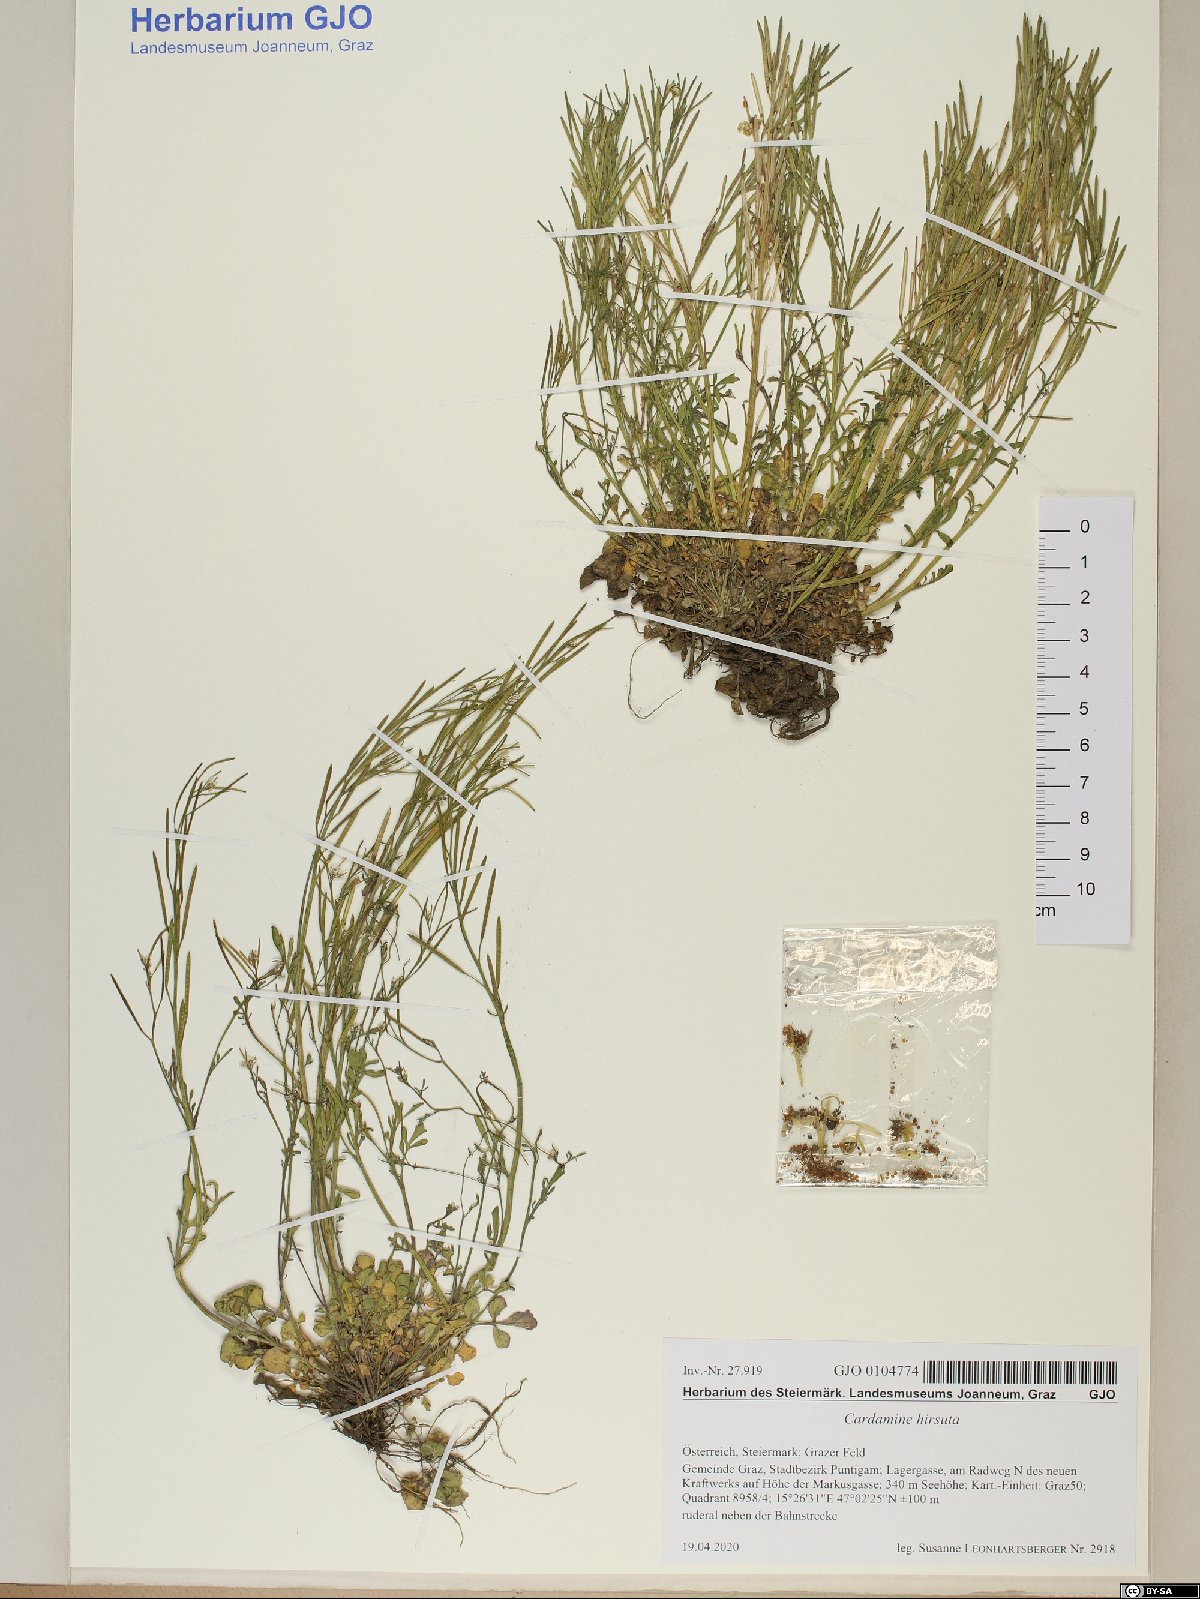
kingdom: Plantae
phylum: Tracheophyta
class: Magnoliopsida
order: Brassicales
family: Brassicaceae
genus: Cardamine
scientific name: Cardamine hirsuta
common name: Hairy bittercress
